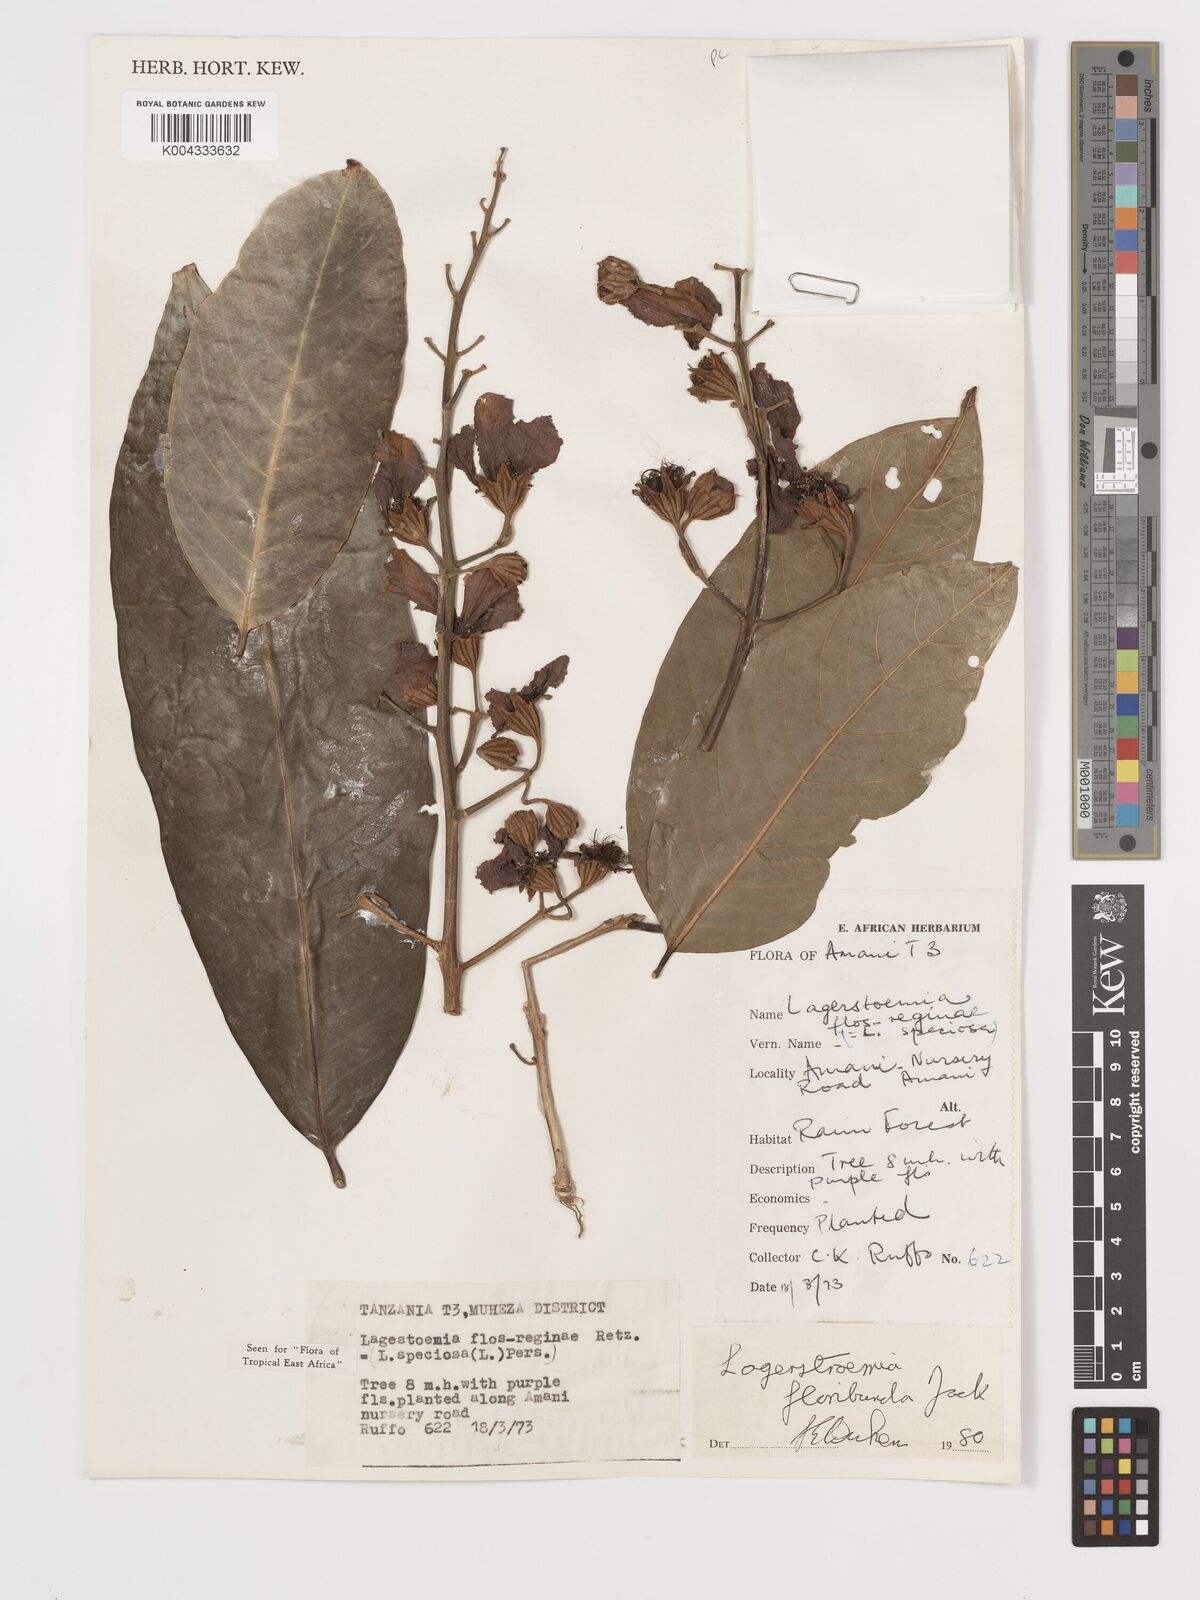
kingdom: Plantae
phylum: Tracheophyta
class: Magnoliopsida
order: Myrtales
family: Lythraceae
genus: Lagerstroemia
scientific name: Lagerstroemia speciosa
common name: Queen's crape-myrtle
